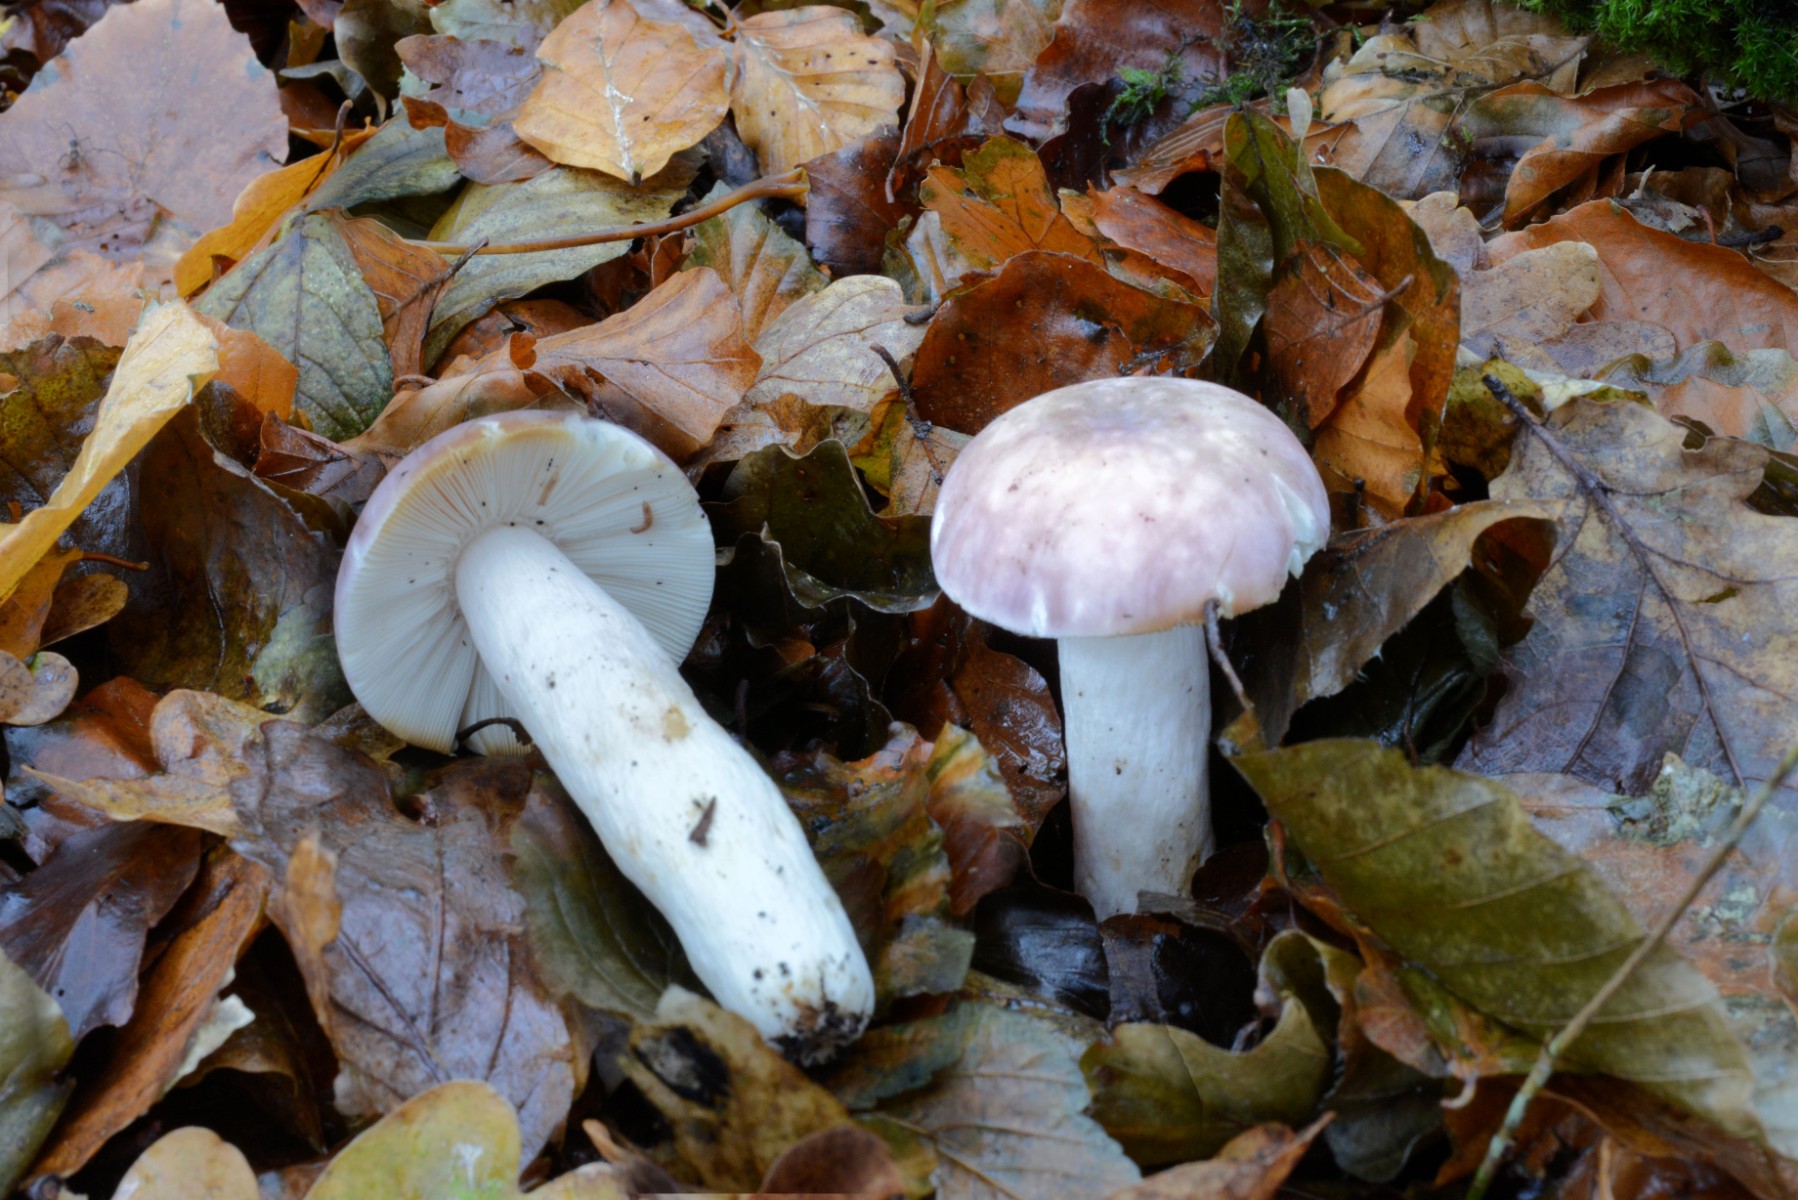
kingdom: Fungi
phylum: Basidiomycota
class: Agaricomycetes
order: Russulales
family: Russulaceae
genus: Russula
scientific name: Russula cyanoxantha
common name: broget skørhat
